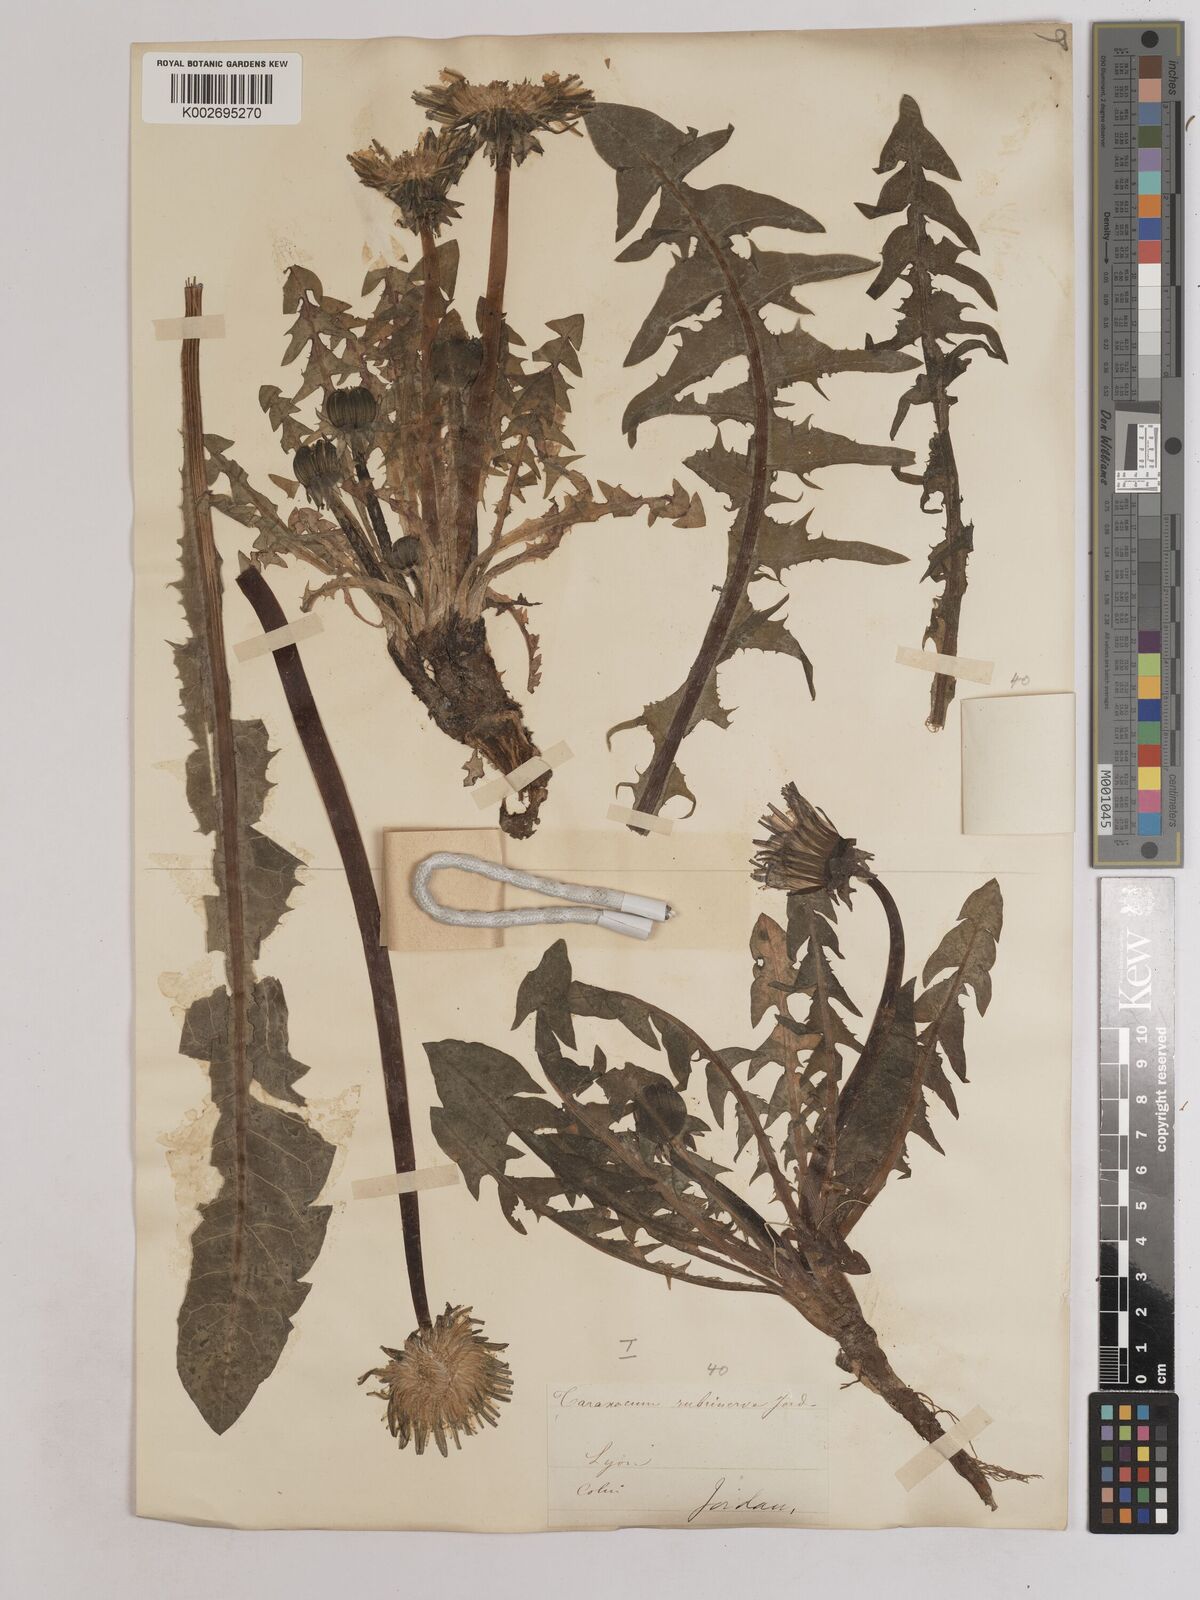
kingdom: Plantae
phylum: Tracheophyta
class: Magnoliopsida
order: Asterales
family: Asteraceae
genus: Taraxacum
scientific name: Taraxacum officinale
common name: Common dandelion
